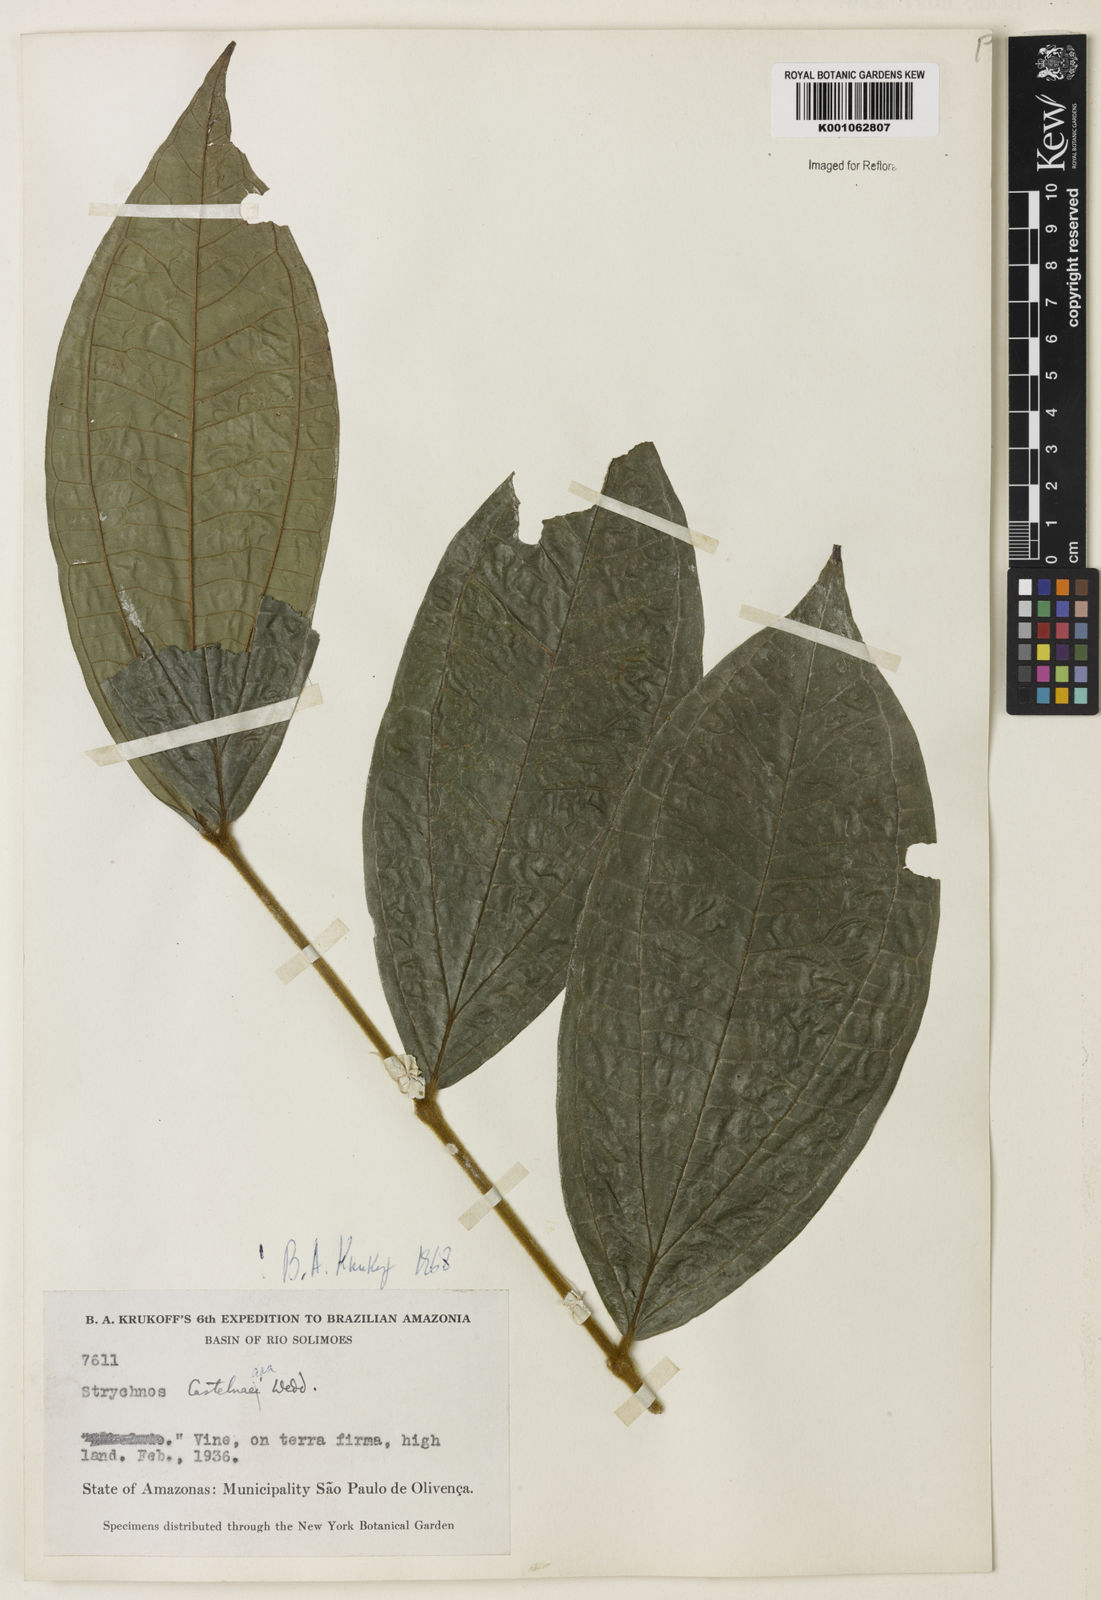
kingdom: Plantae
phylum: Tracheophyta
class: Magnoliopsida
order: Gentianales
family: Loganiaceae
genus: Strychnos
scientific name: Strychnos
